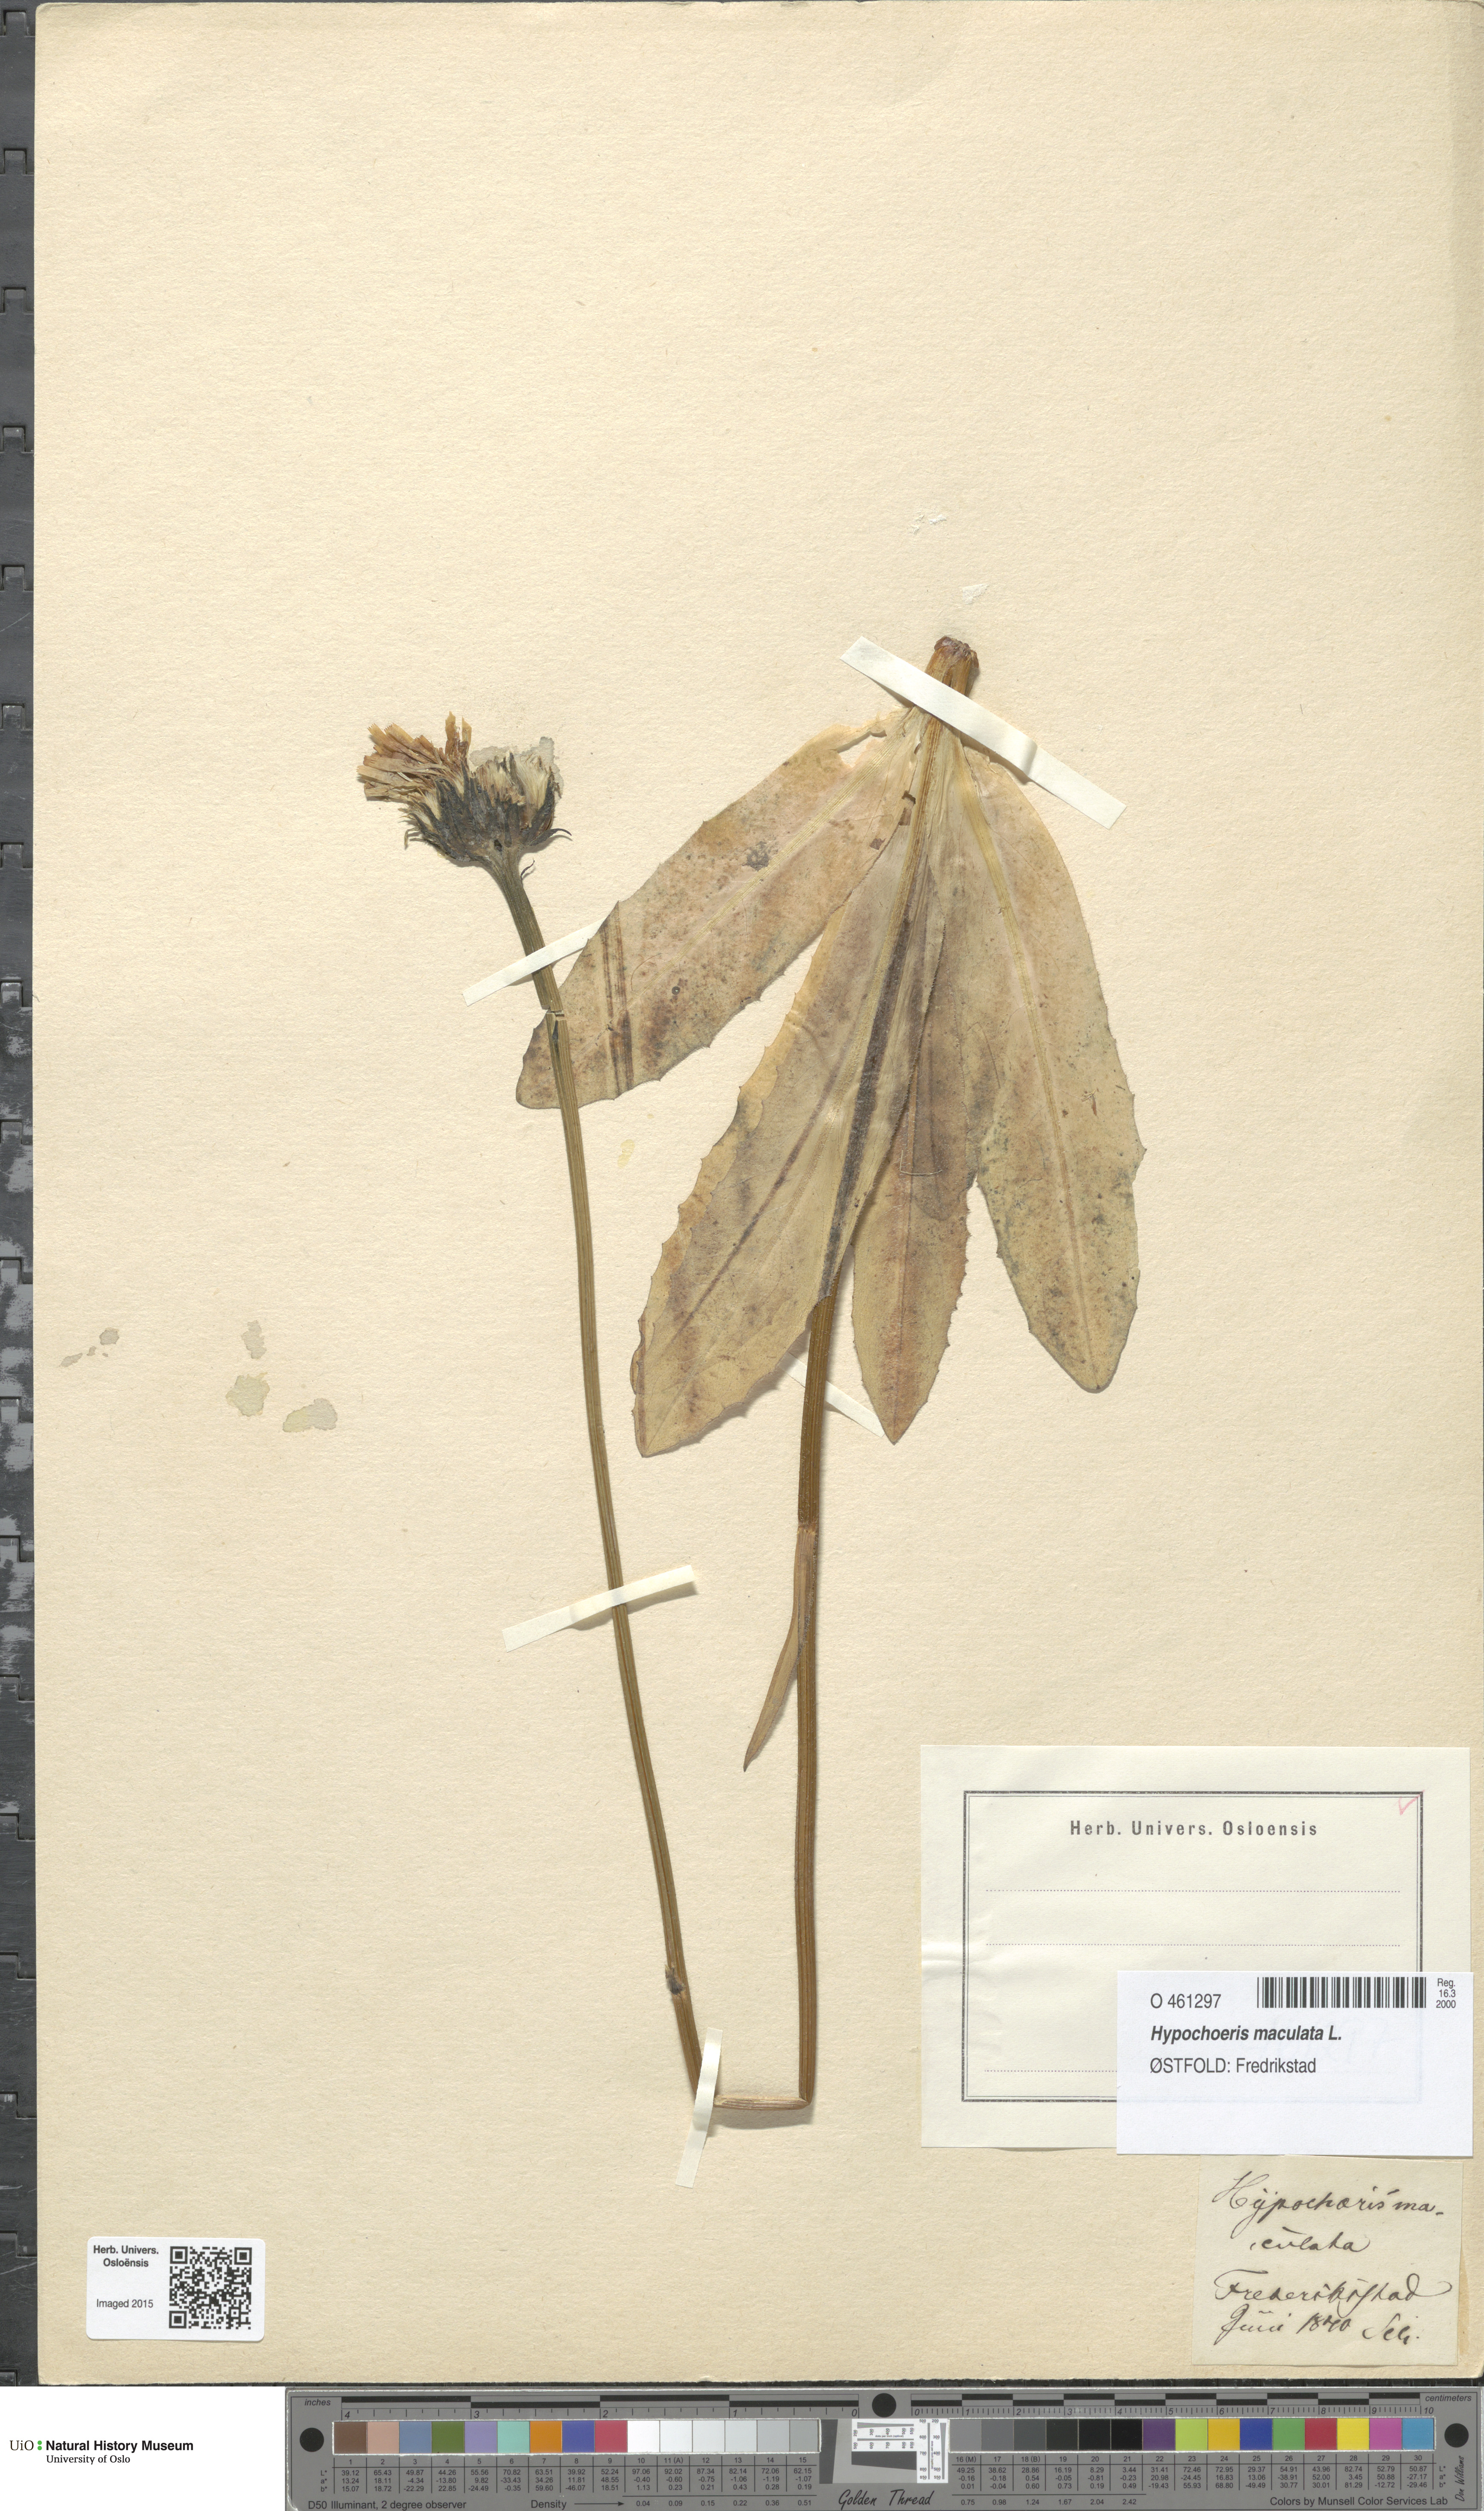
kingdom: Plantae
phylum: Tracheophyta
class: Magnoliopsida
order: Asterales
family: Asteraceae
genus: Trommsdorffia
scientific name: Trommsdorffia maculata
